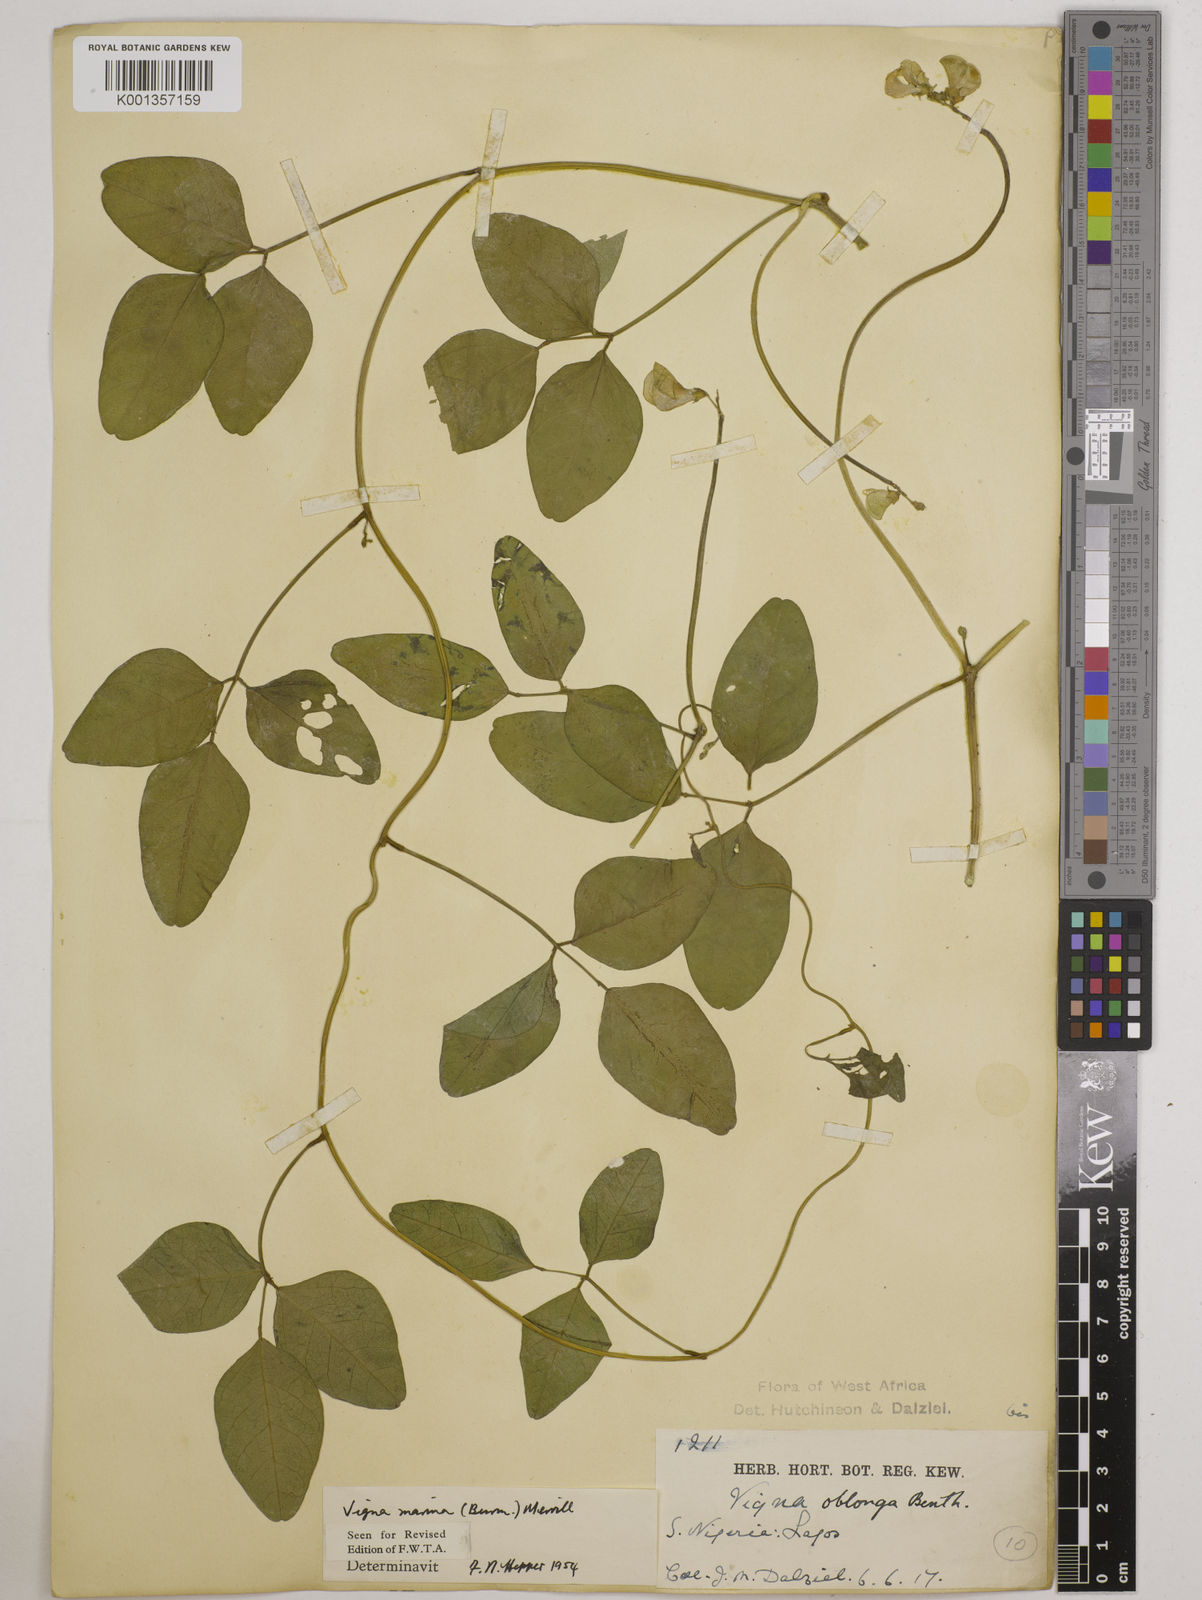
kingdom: Plantae
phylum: Tracheophyta
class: Magnoliopsida
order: Fabales
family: Fabaceae
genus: Vigna
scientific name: Vigna marina
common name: Dune-bean
